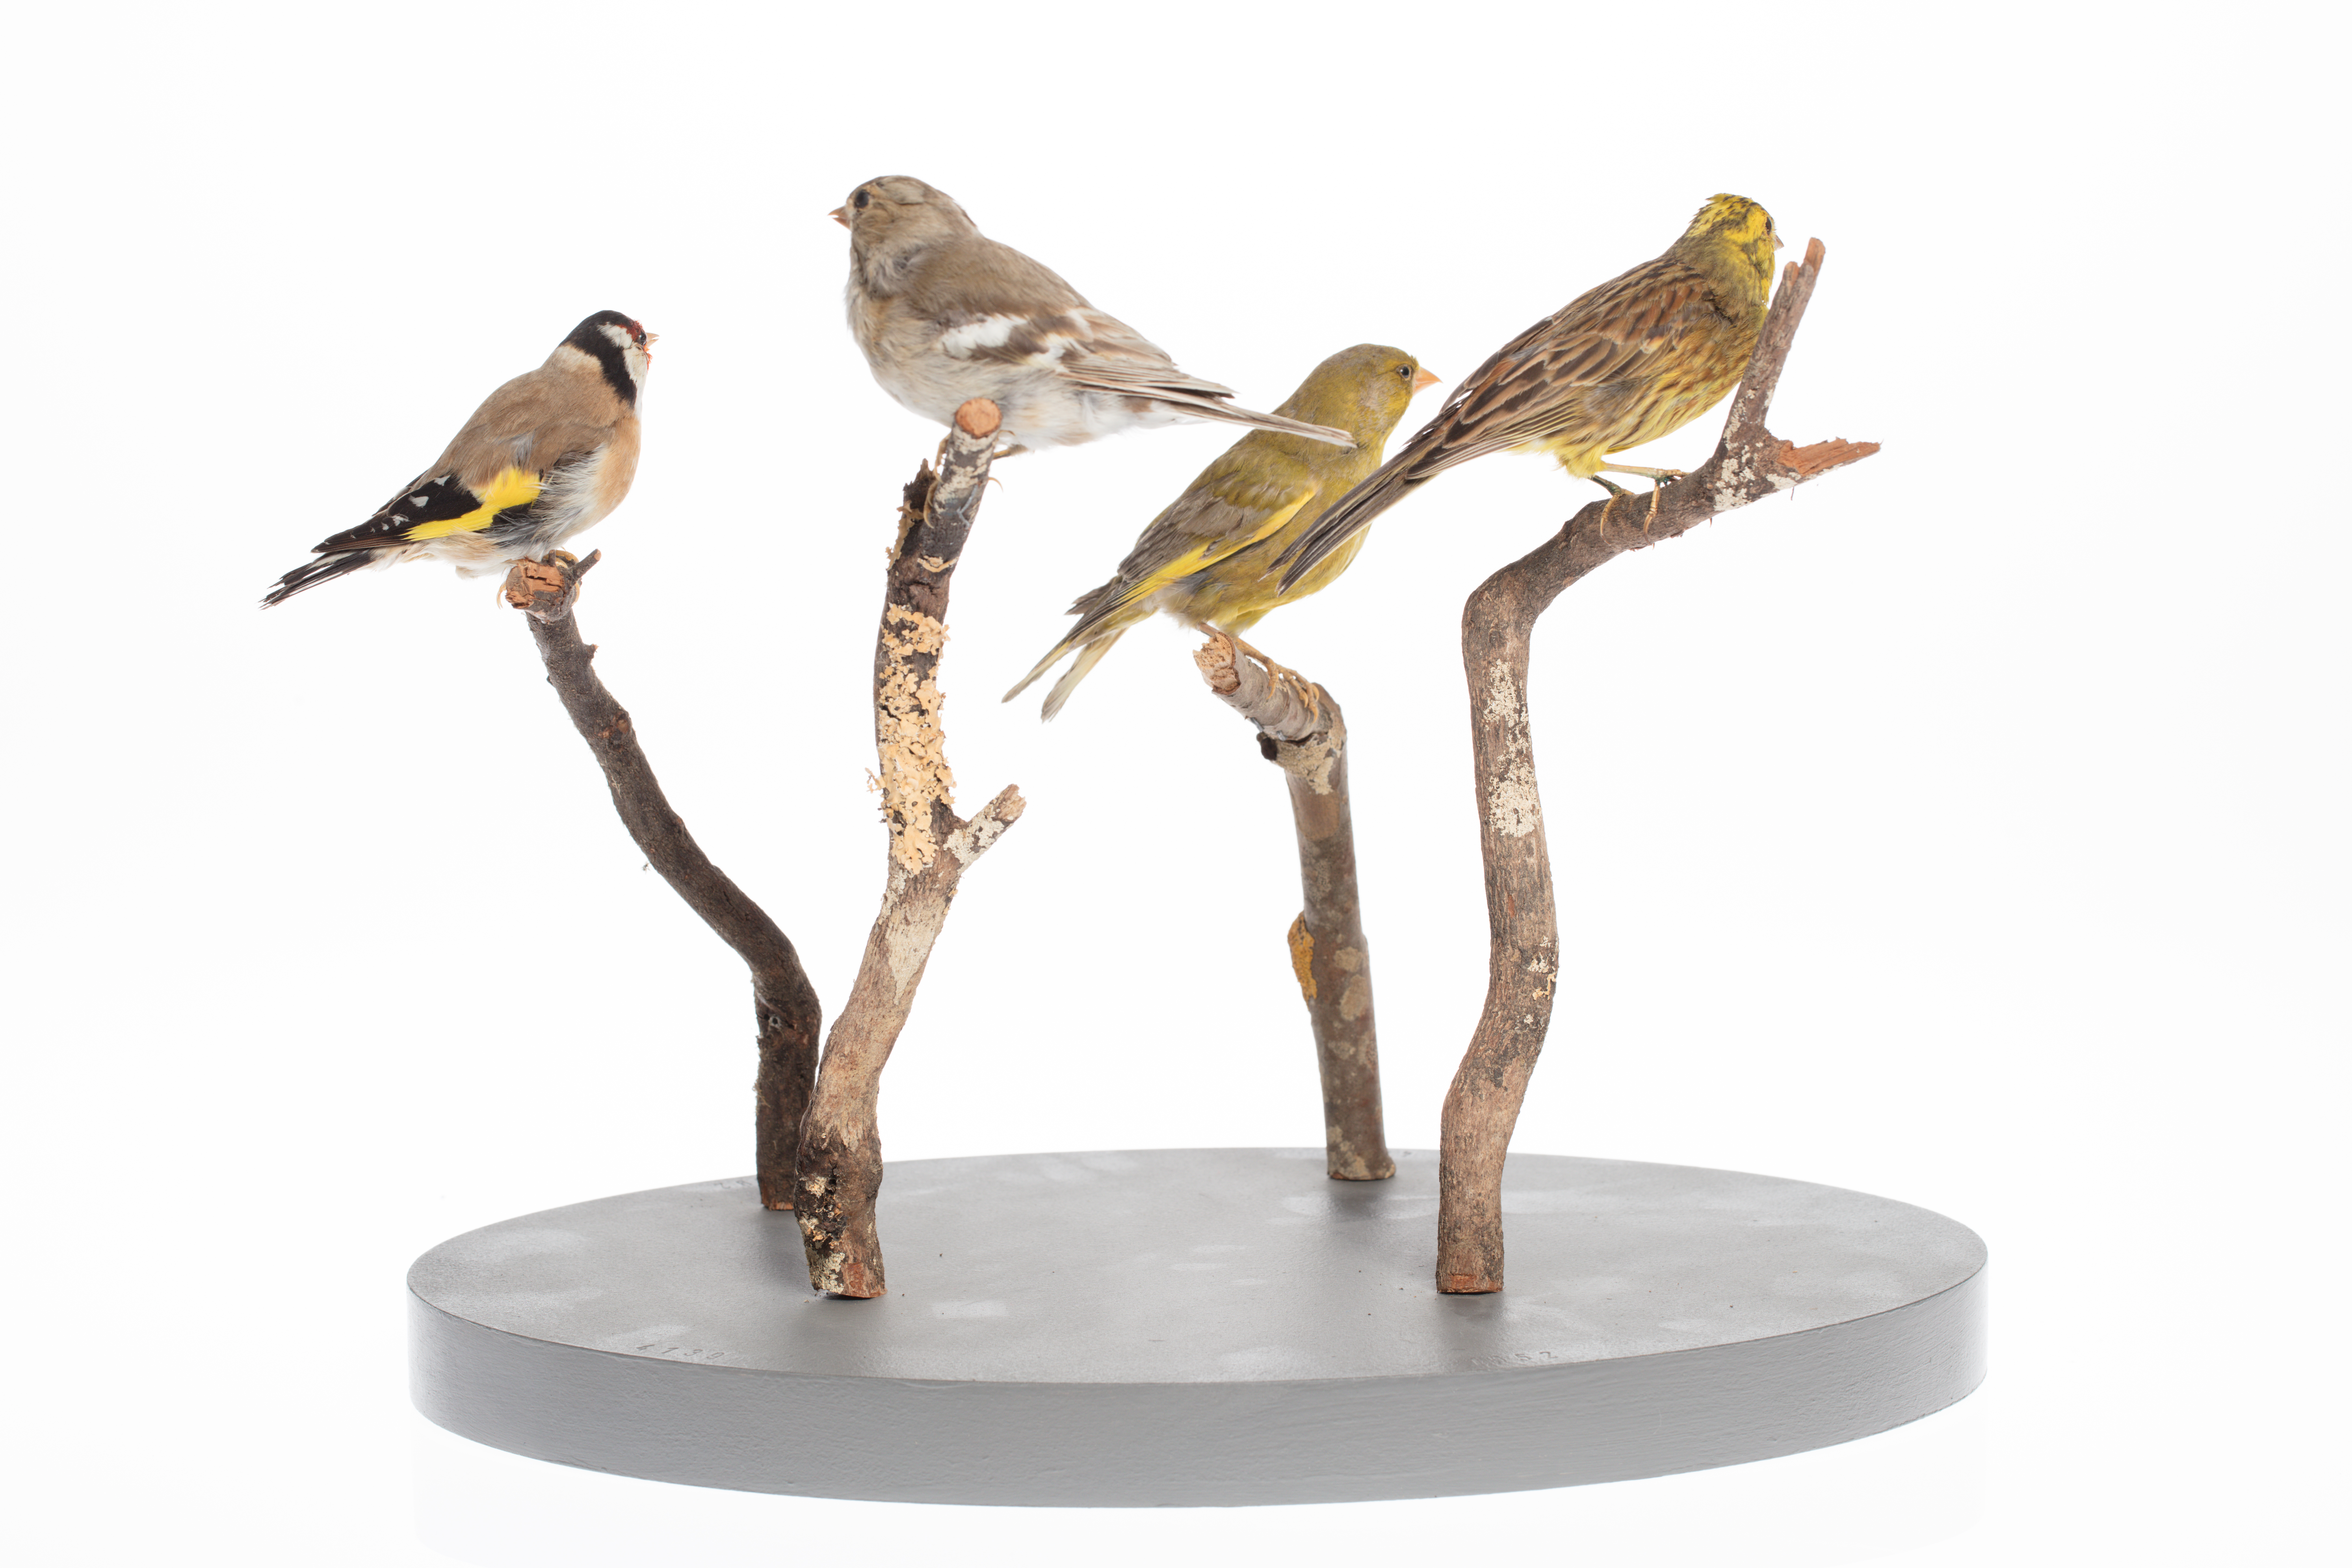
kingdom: Plantae
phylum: Tracheophyta
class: Liliopsida
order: Poales
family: Poaceae
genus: Chloris
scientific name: Chloris chloris
